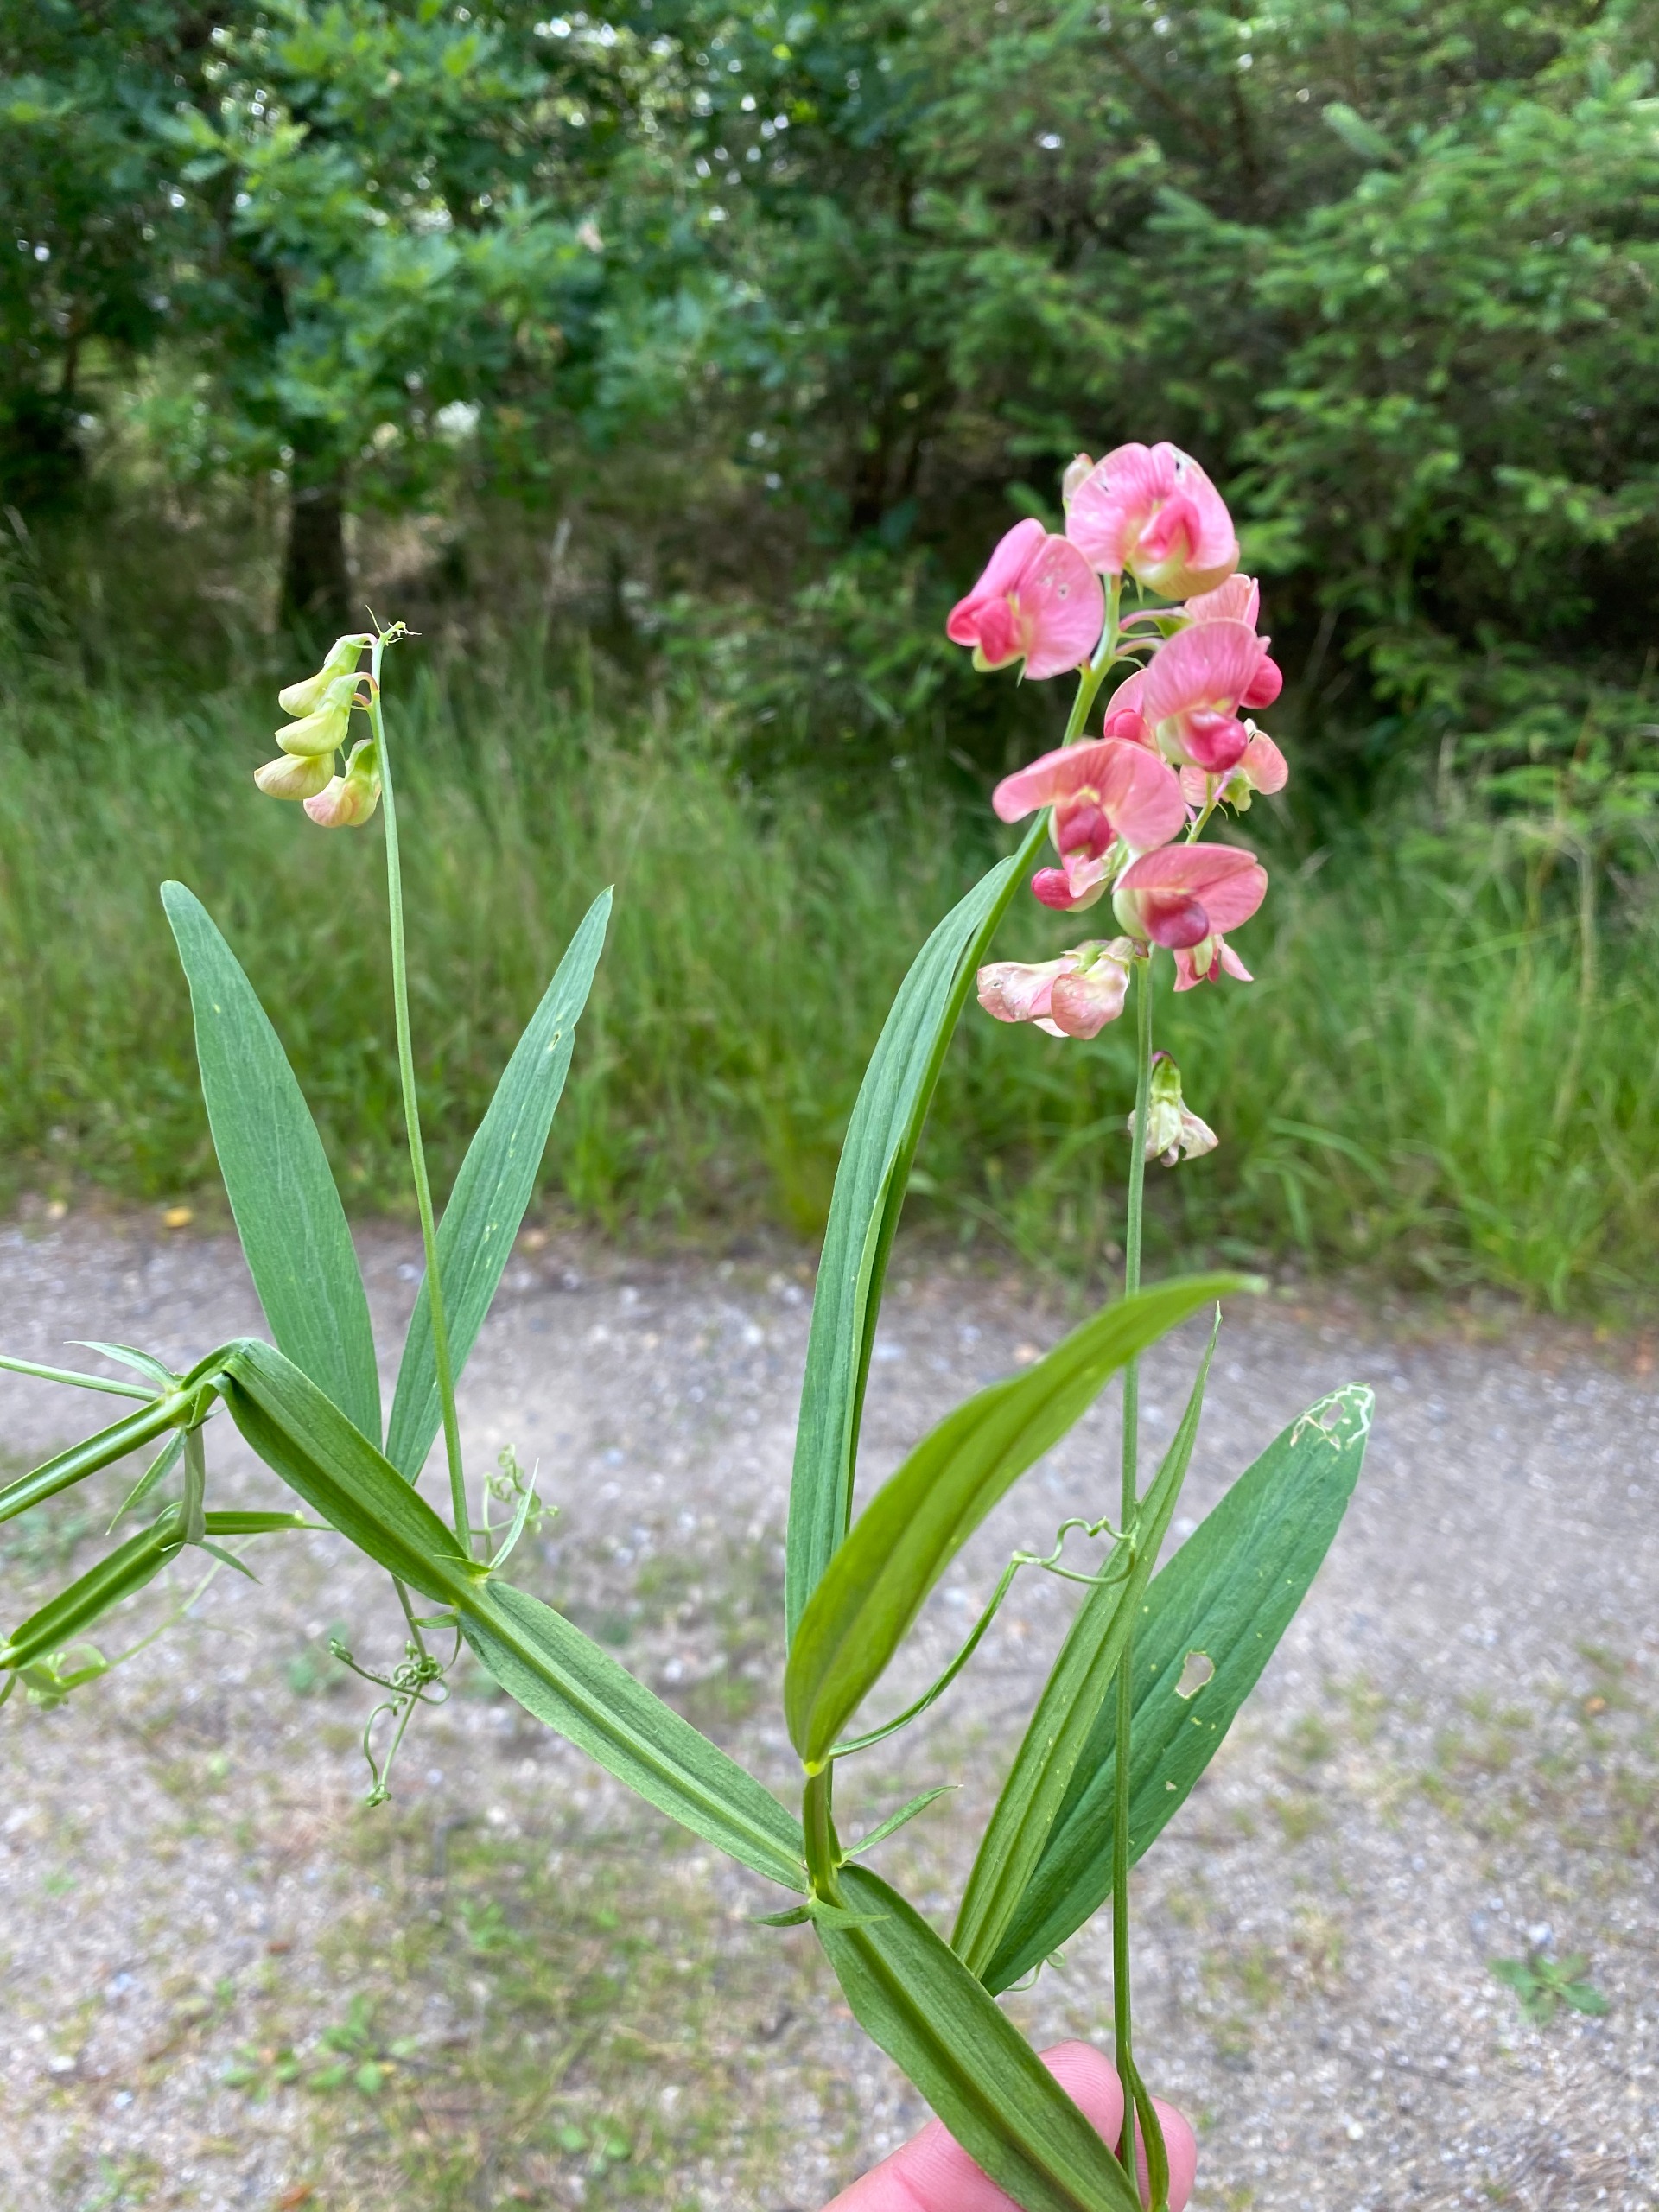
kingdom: Plantae
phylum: Tracheophyta
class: Magnoliopsida
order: Fabales
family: Fabaceae
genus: Lathyrus
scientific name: Lathyrus sylvestris
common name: Skov-fladbælg
